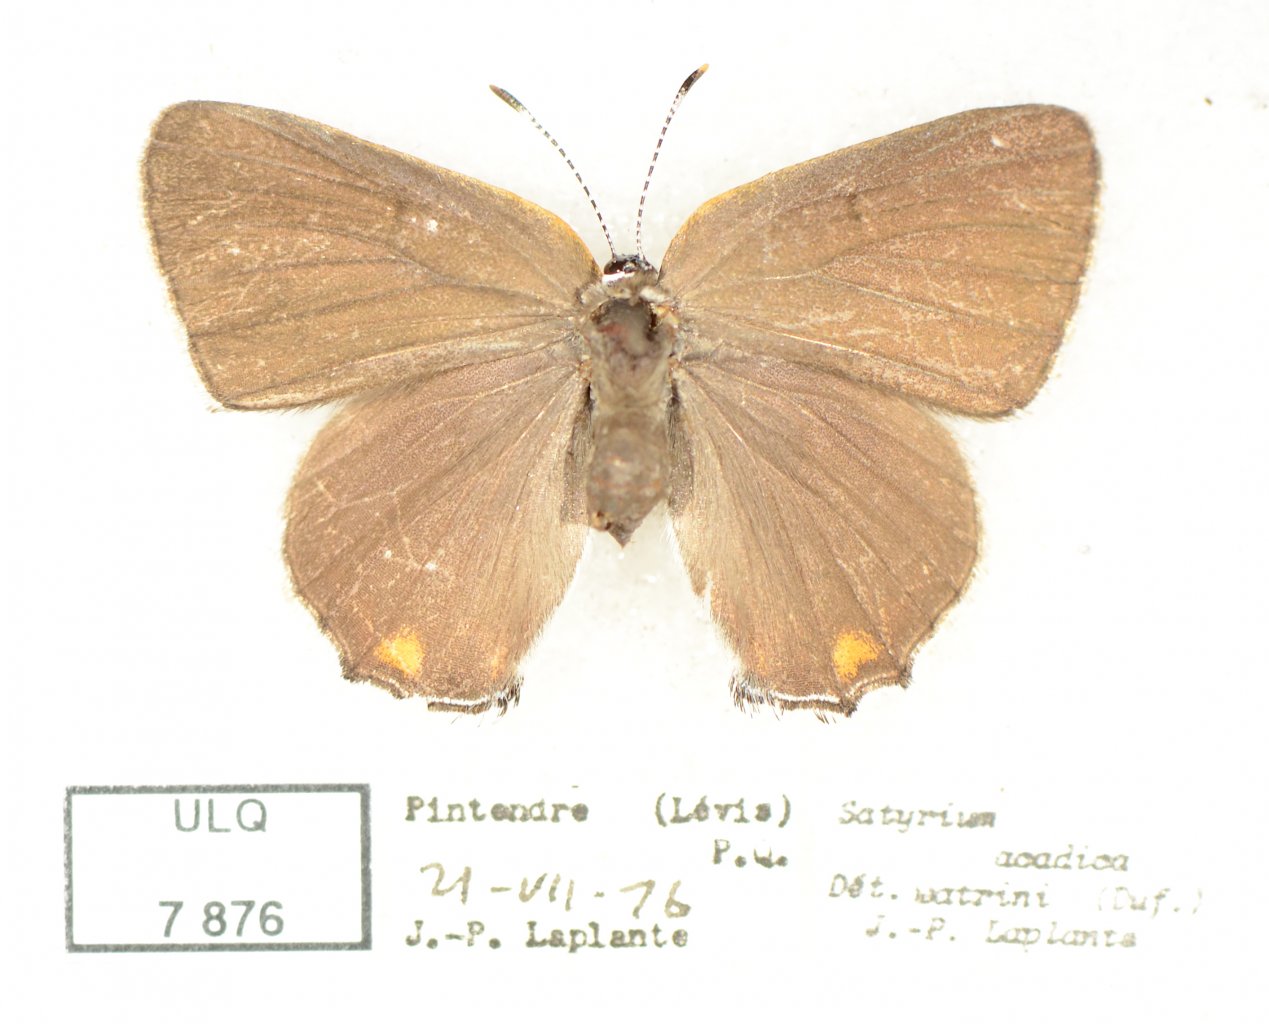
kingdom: Animalia
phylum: Arthropoda
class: Insecta
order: Lepidoptera
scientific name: Lepidoptera
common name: Butterflies
